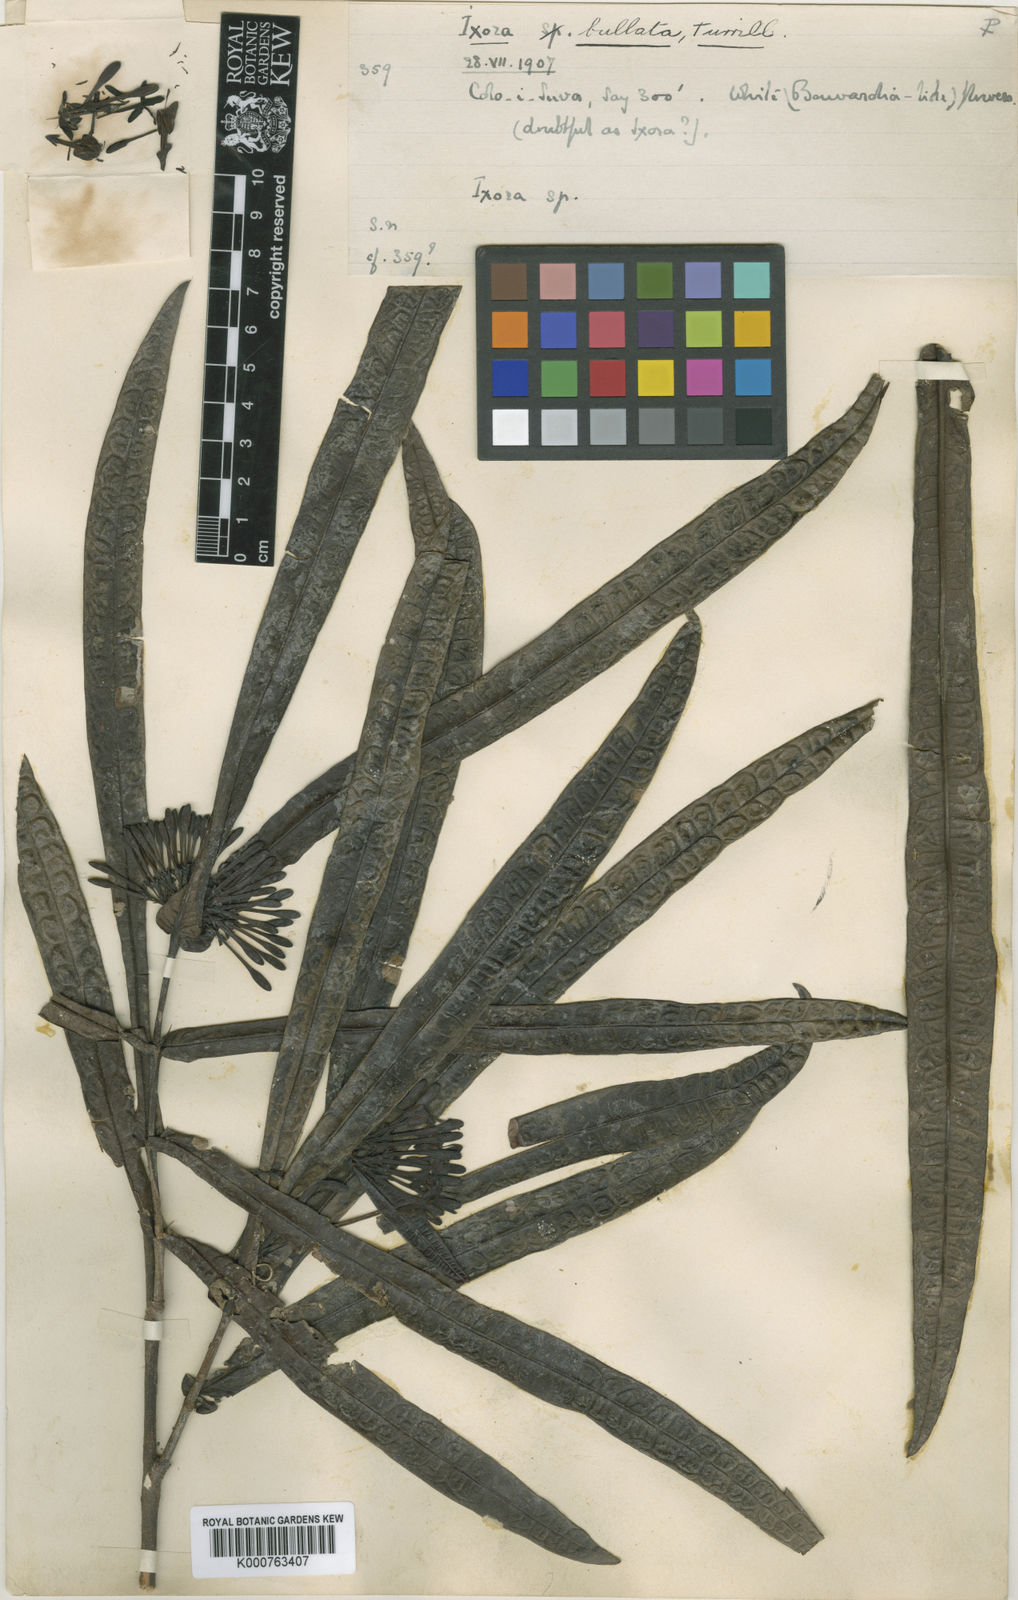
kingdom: Plantae
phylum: Tracheophyta
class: Magnoliopsida
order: Gentianales
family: Rubiaceae
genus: Ixora
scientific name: Ixora bullata
